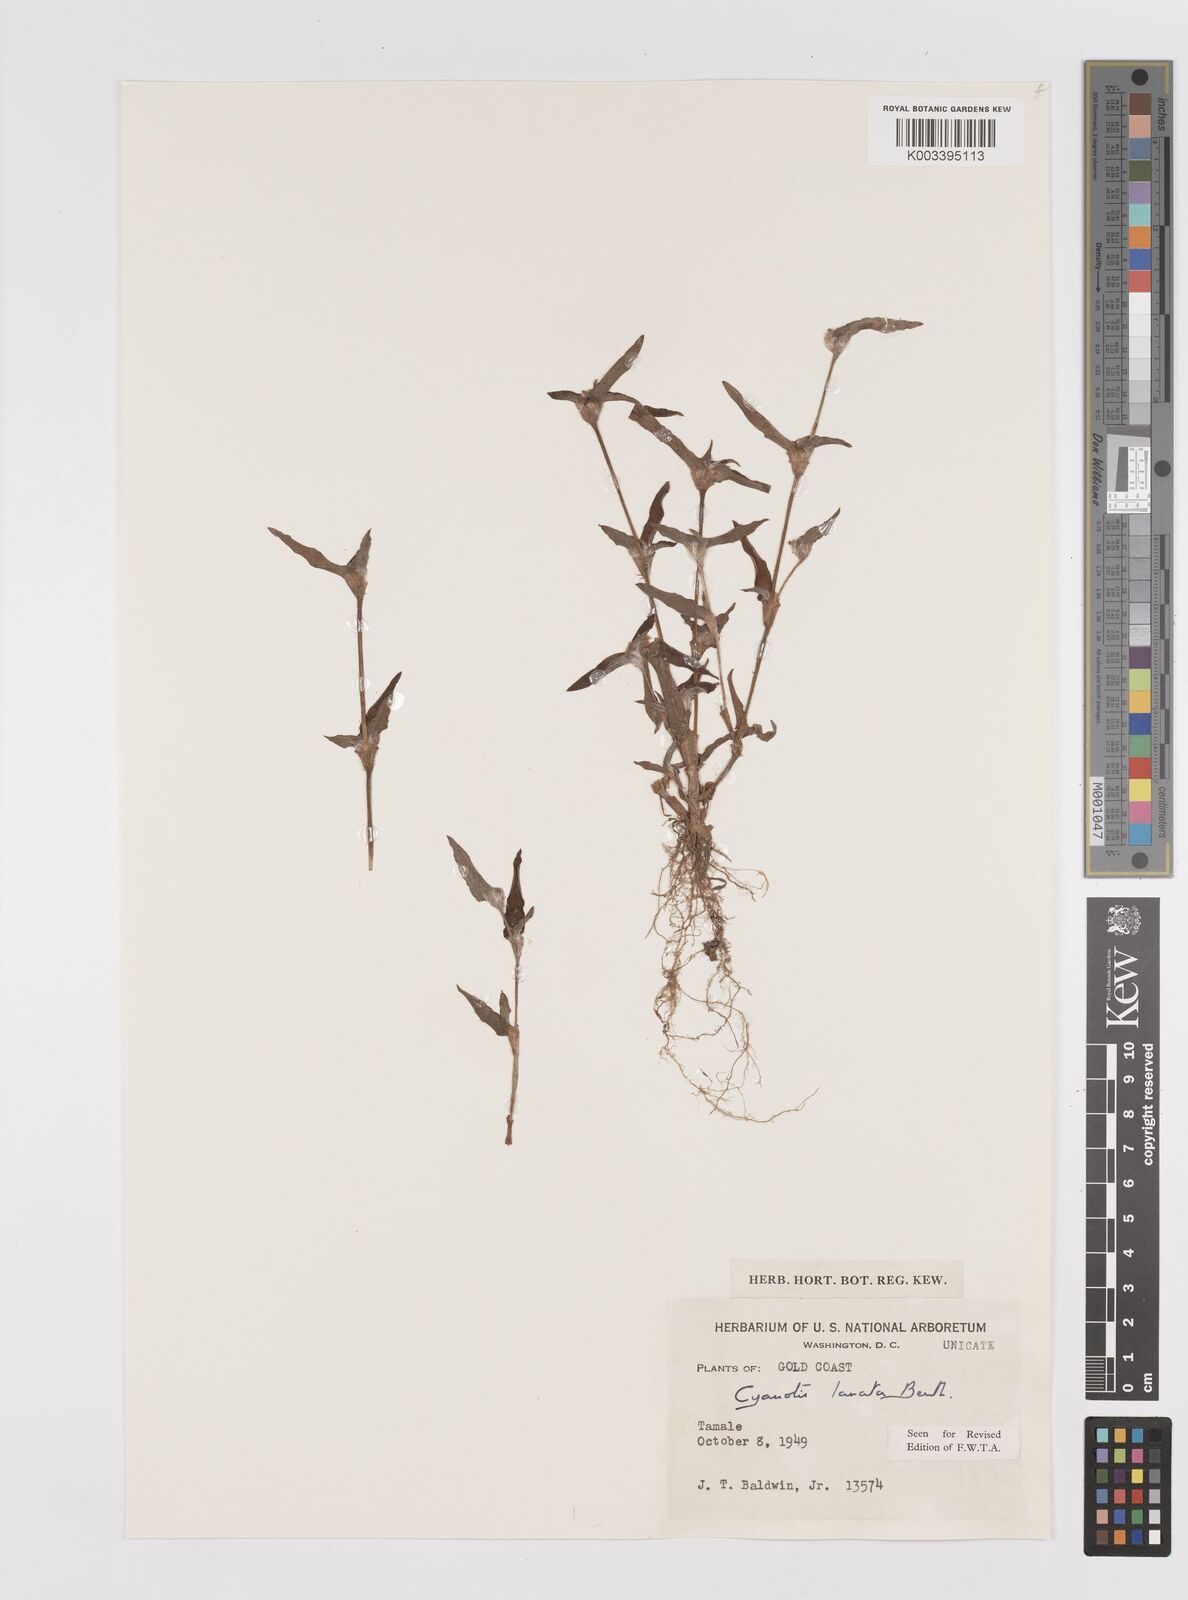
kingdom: Plantae
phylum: Tracheophyta
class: Liliopsida
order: Commelinales
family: Commelinaceae
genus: Cyanotis
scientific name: Cyanotis lanata
